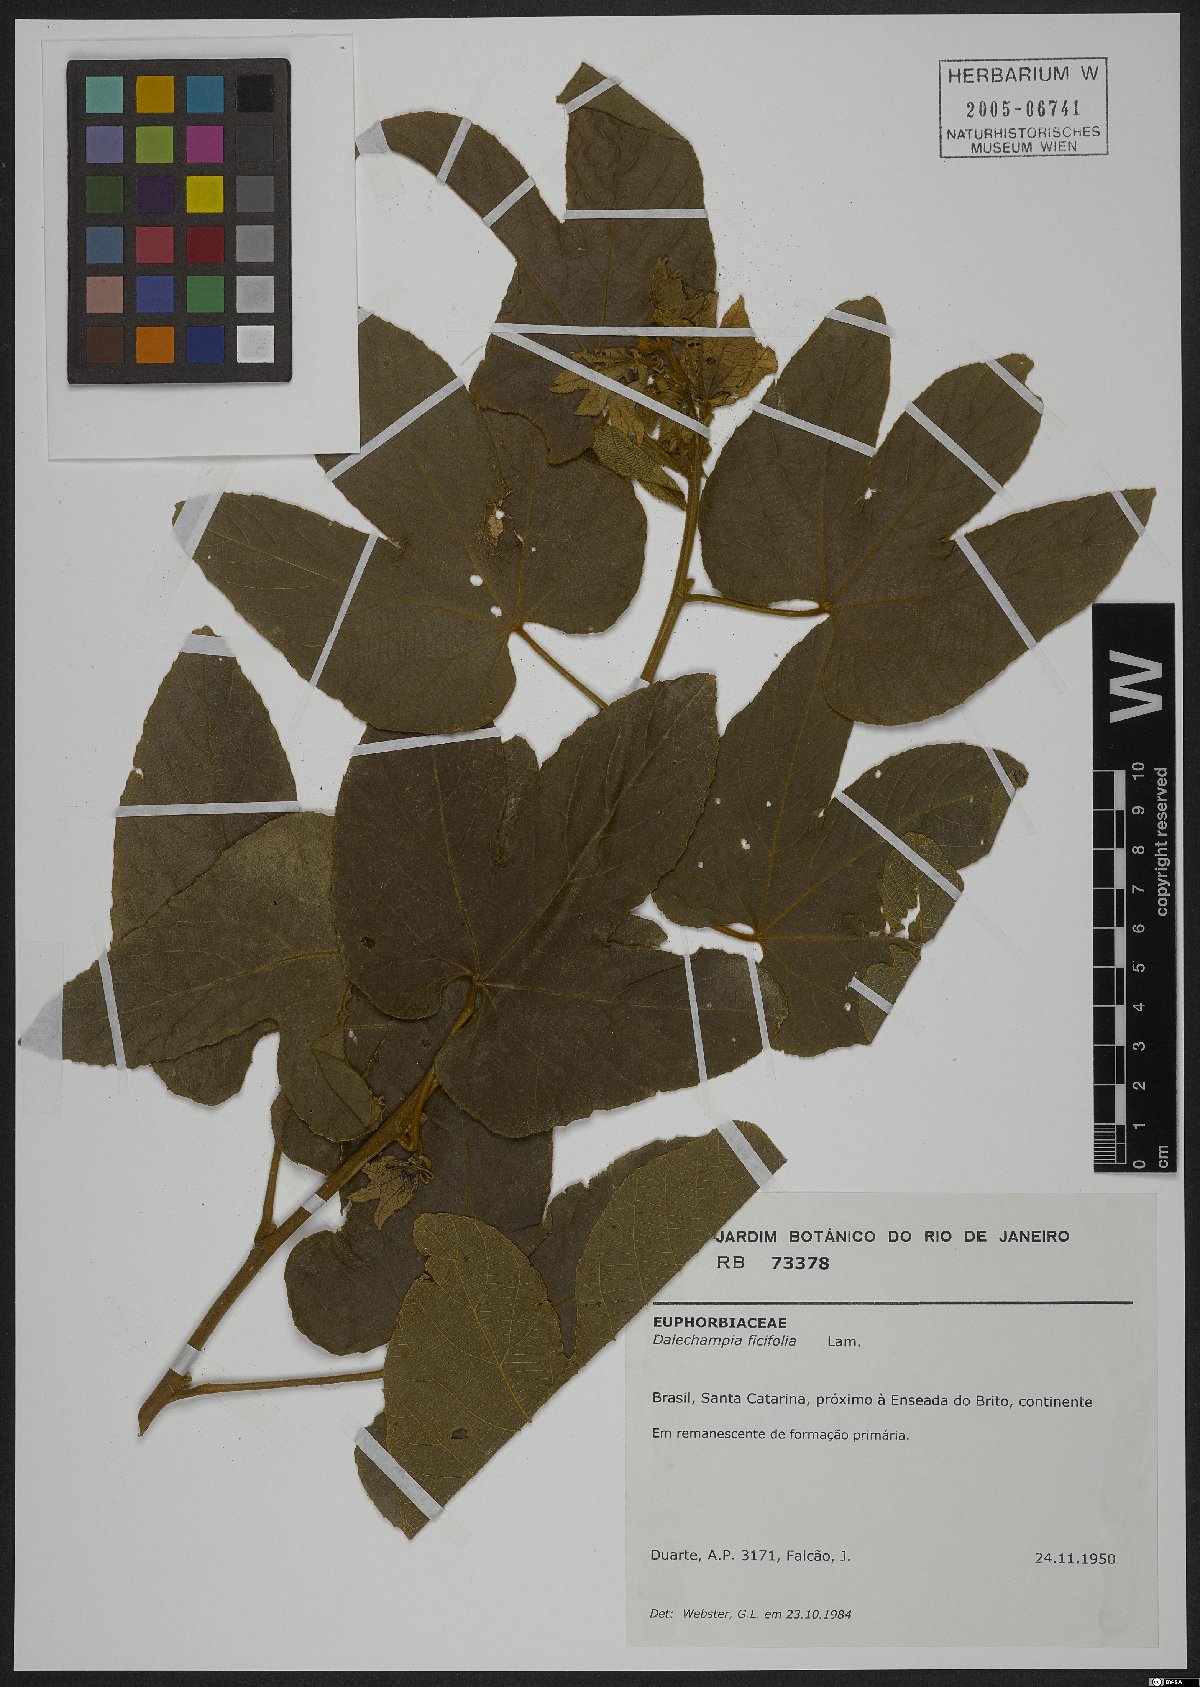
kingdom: Plantae
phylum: Tracheophyta
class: Magnoliopsida
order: Malpighiales
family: Euphorbiaceae
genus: Dalechampia
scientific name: Dalechampia ficifolia
